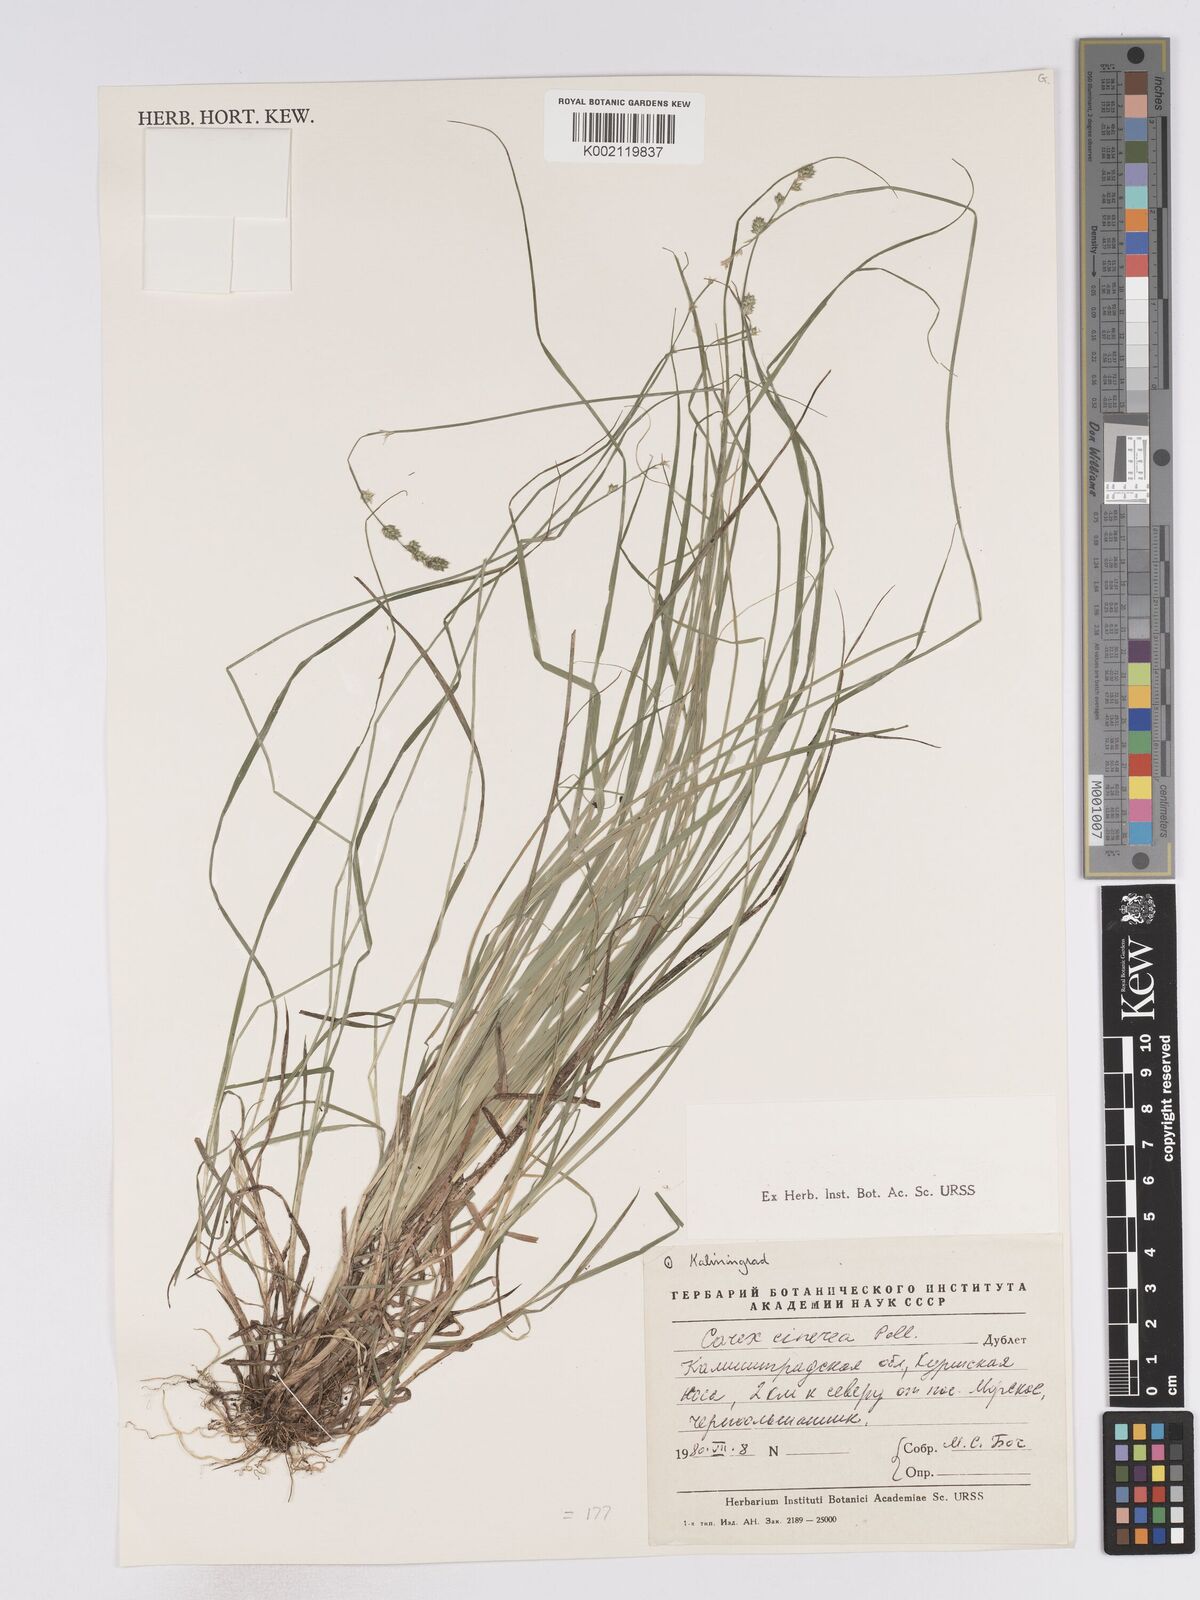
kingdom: Plantae
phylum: Tracheophyta
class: Liliopsida
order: Poales
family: Cyperaceae
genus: Carex
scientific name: Carex curta
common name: White sedge
